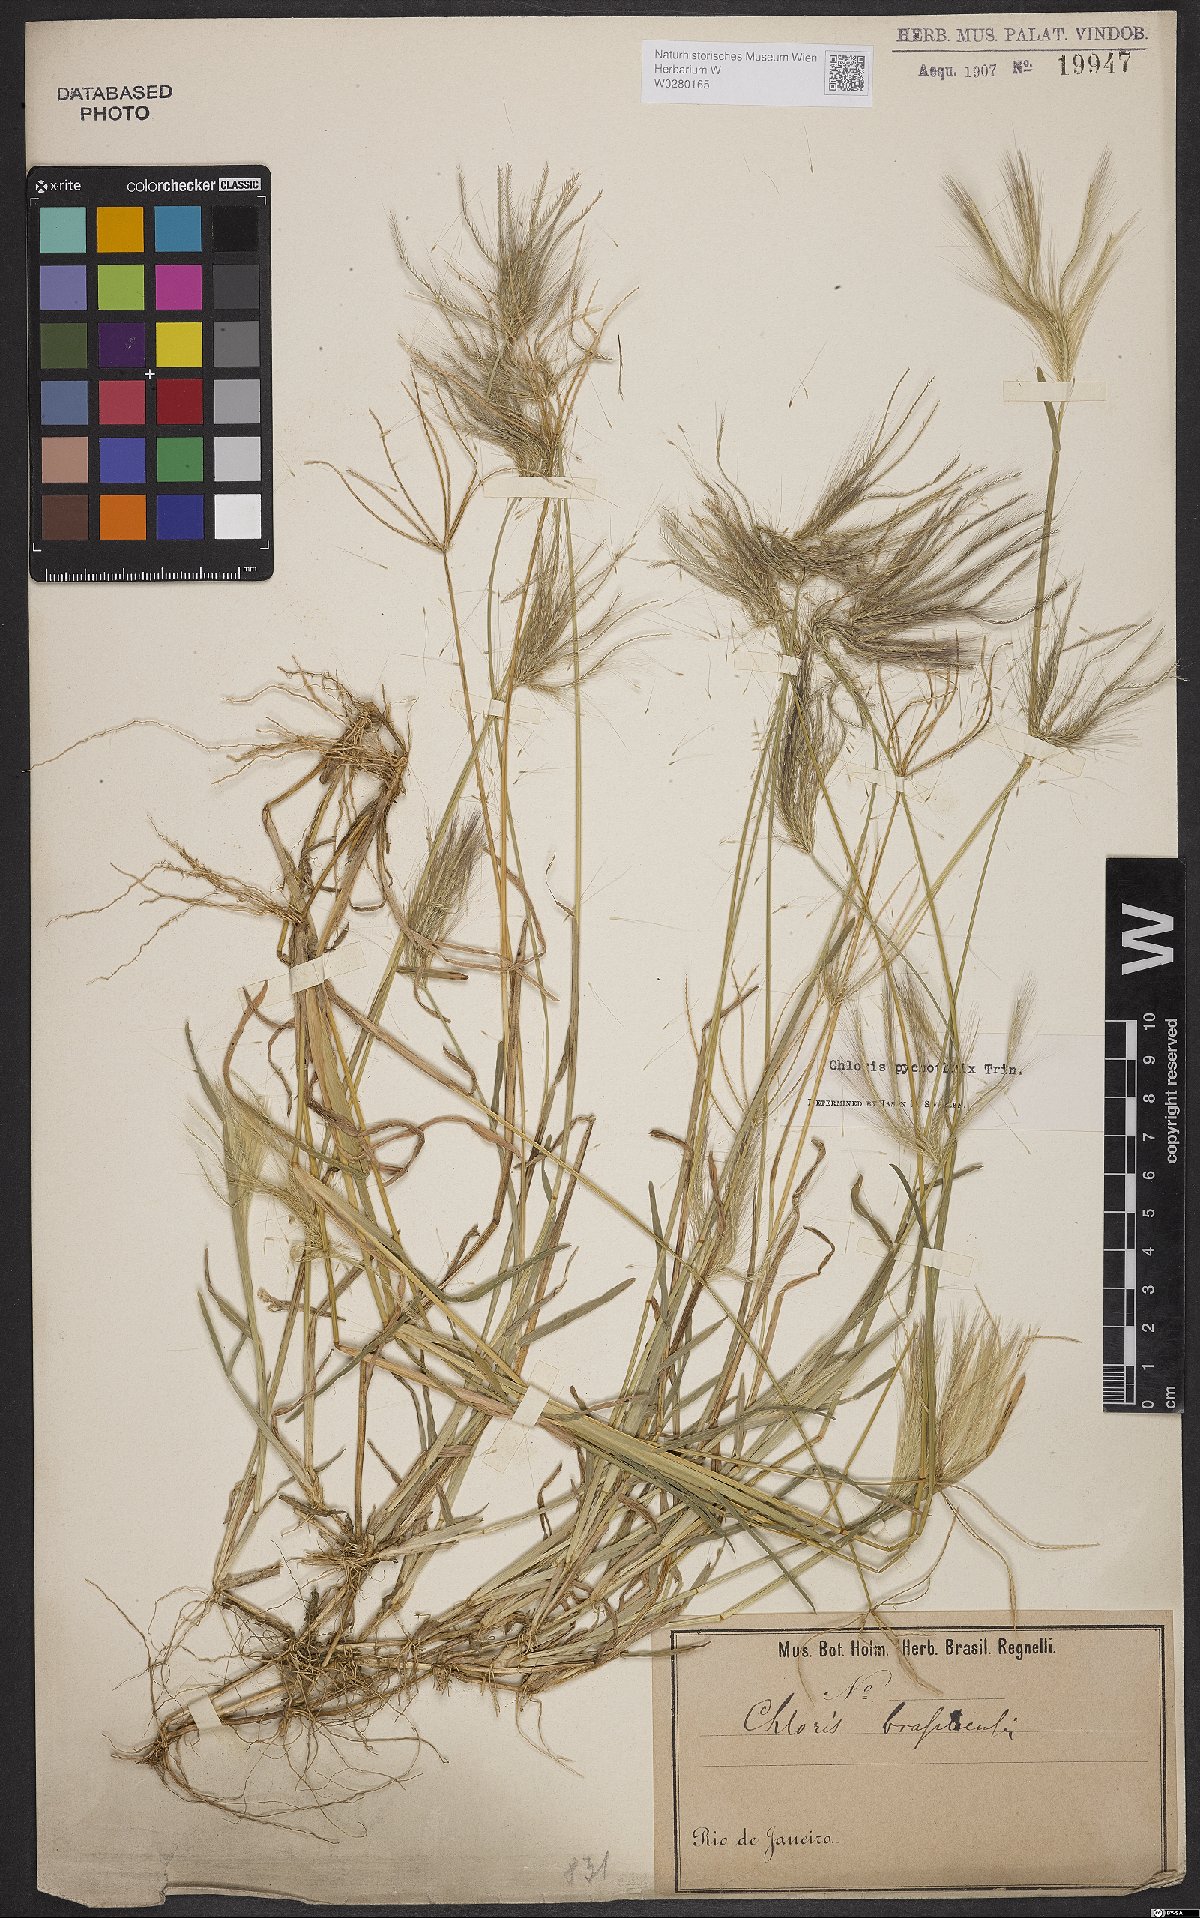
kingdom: Plantae
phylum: Tracheophyta
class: Liliopsida
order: Poales
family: Poaceae
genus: Chloris
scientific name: Chloris pycnothrix
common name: Spiderweb chloris
